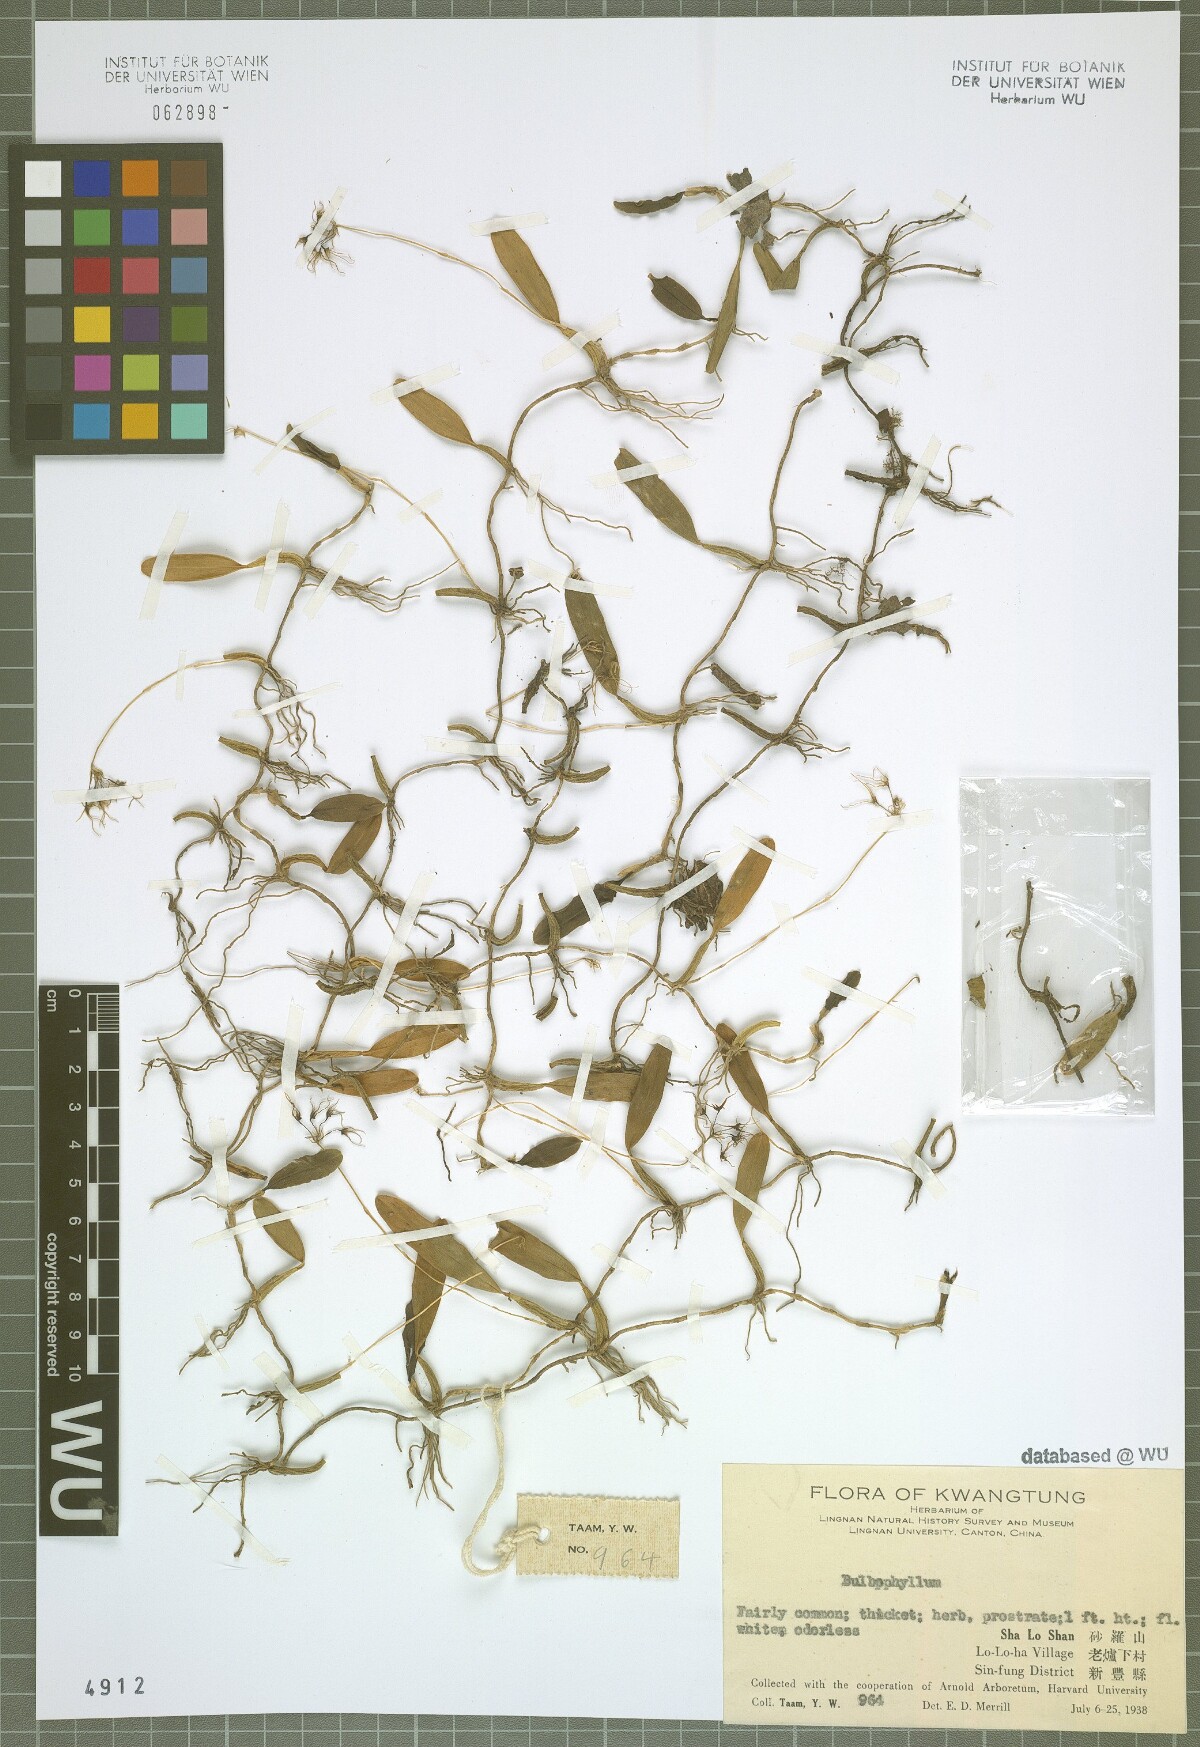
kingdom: Plantae
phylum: Tracheophyta
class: Liliopsida
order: Asparagales
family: Orchidaceae
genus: Bulbophyllum
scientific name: Bulbophyllum kwangtungense
